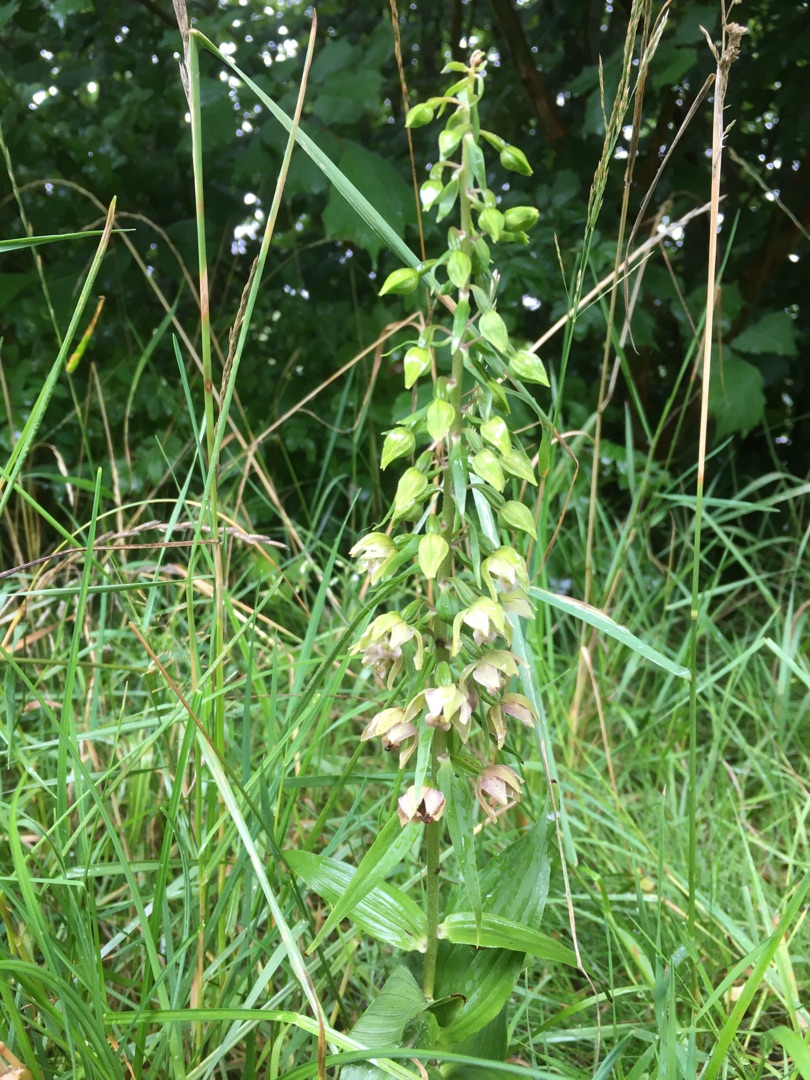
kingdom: Plantae
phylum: Tracheophyta
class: Liliopsida
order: Asparagales
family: Orchidaceae
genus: Epipactis
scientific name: Epipactis helleborine
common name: Skov-hullæbe
